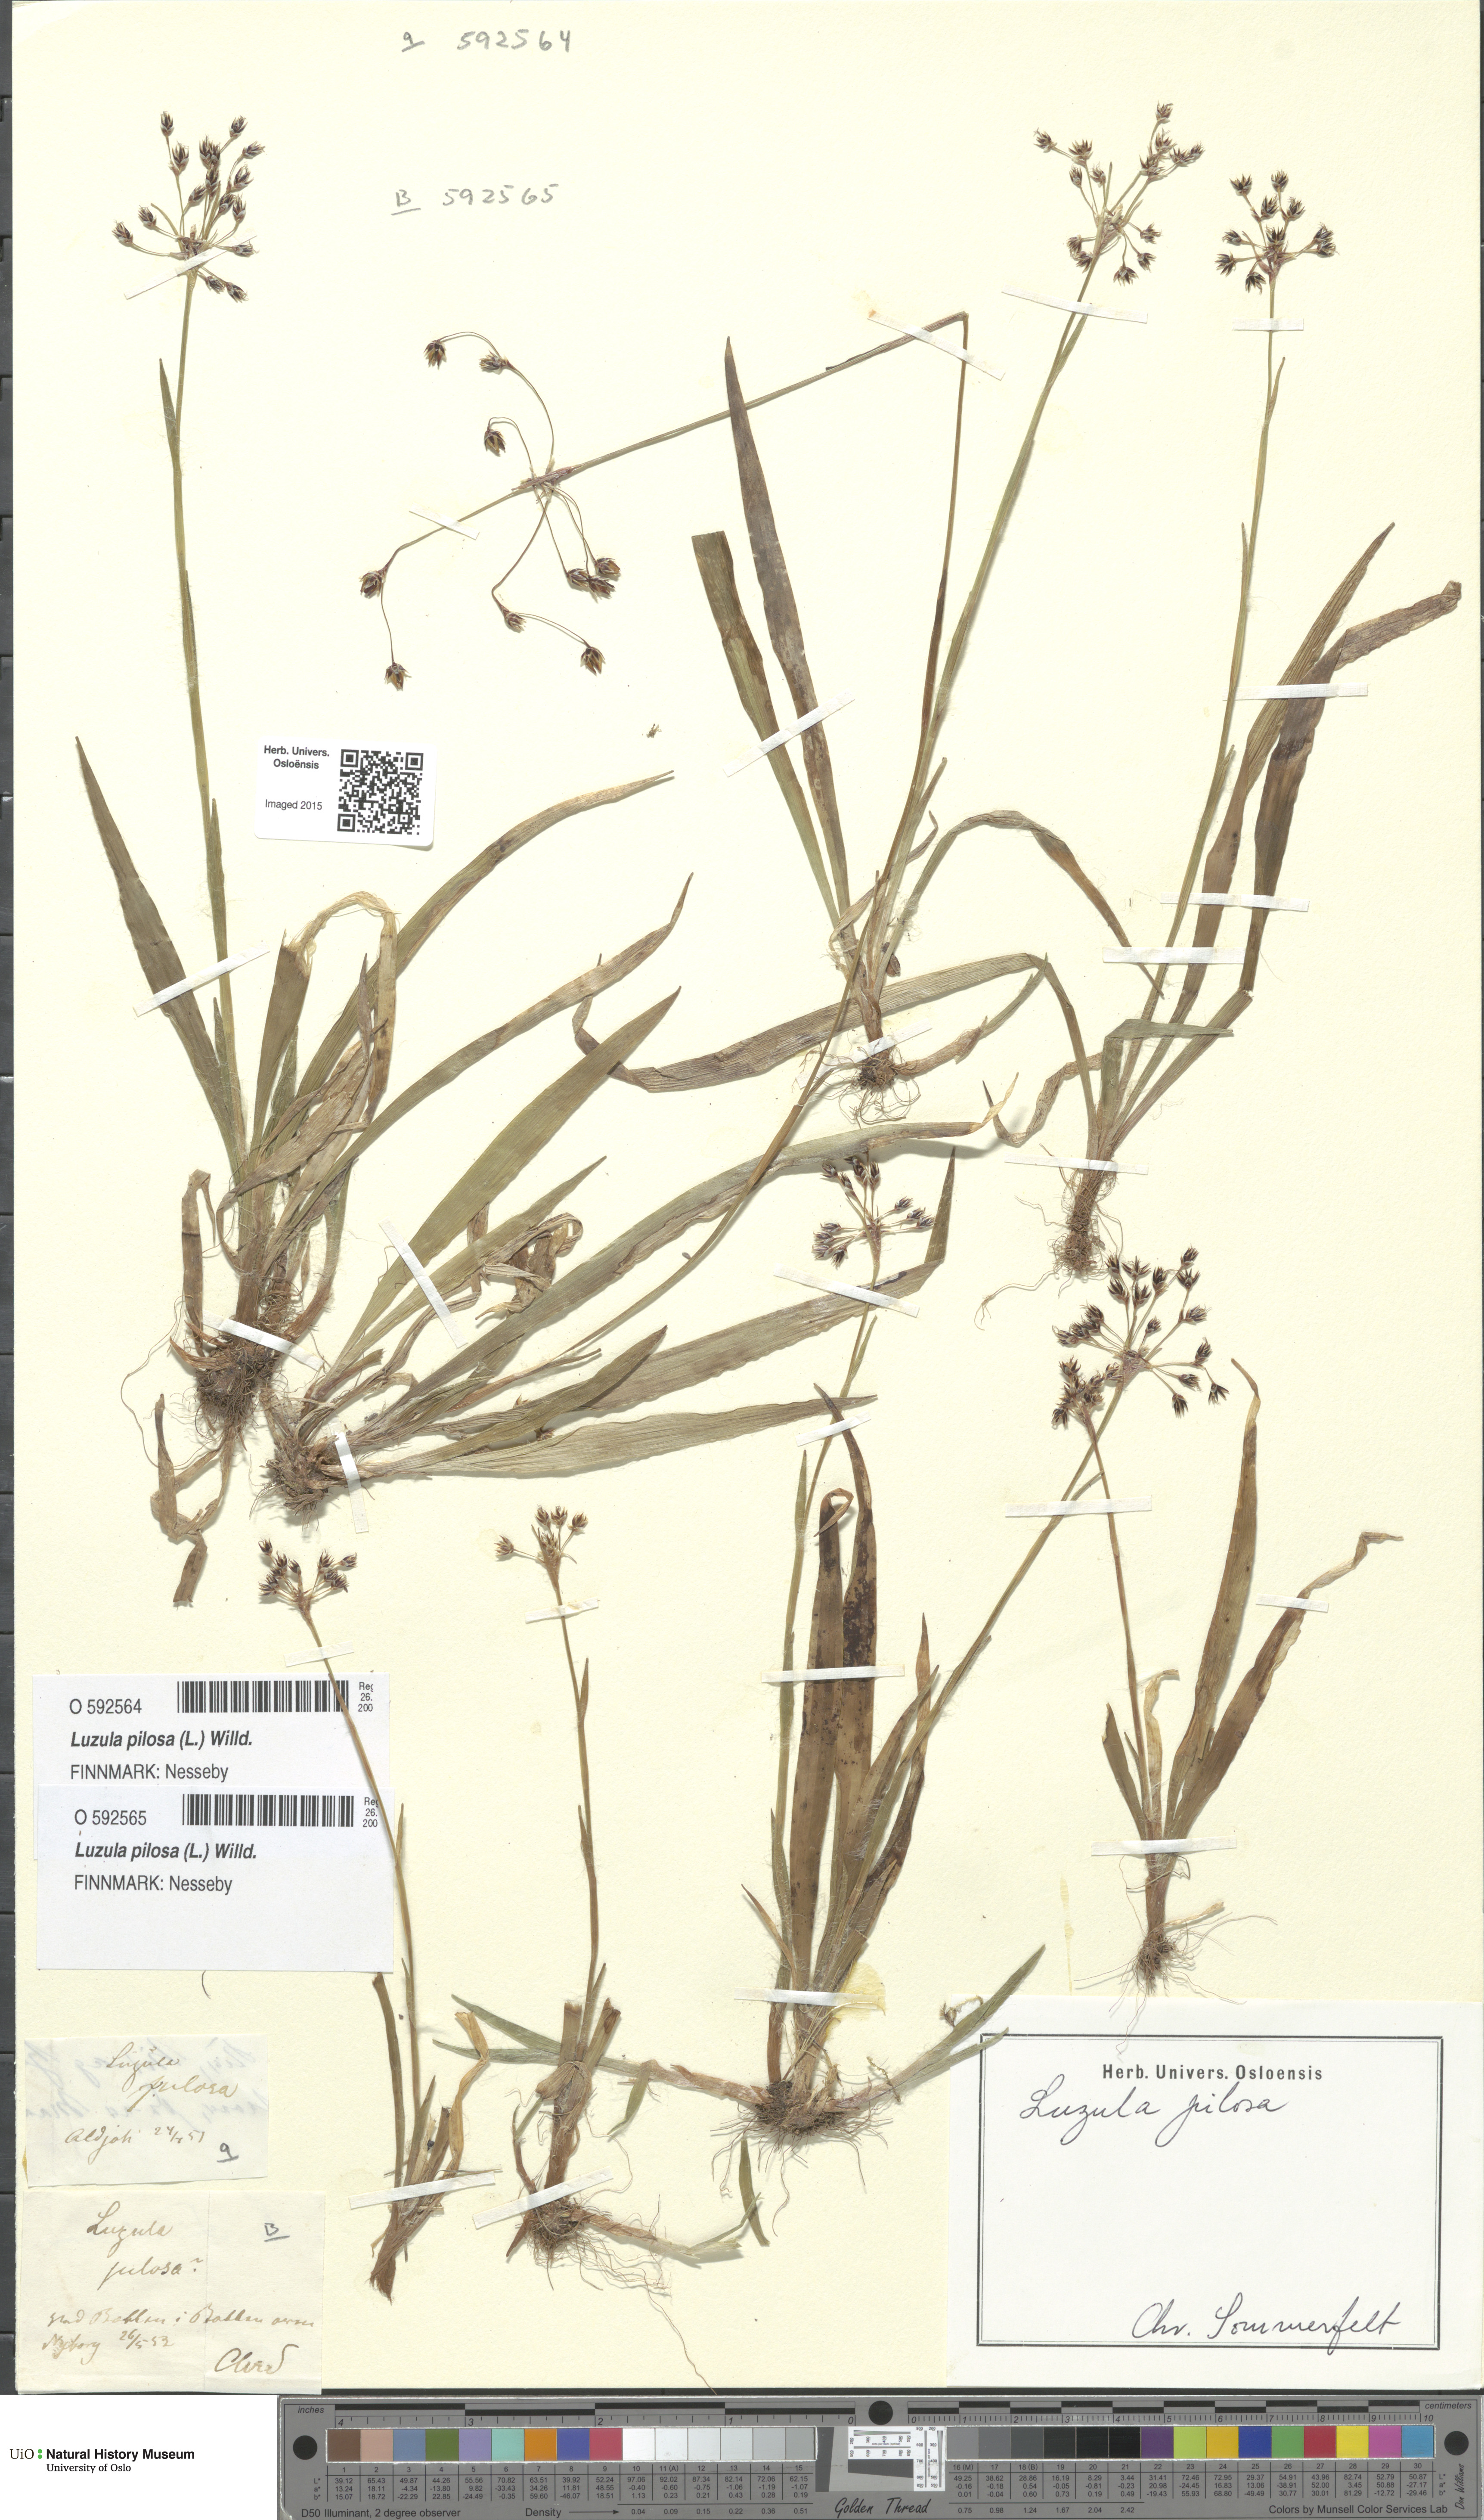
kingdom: Plantae
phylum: Tracheophyta
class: Liliopsida
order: Poales
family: Juncaceae
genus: Luzula
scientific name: Luzula pilosa
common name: Hairy wood-rush
